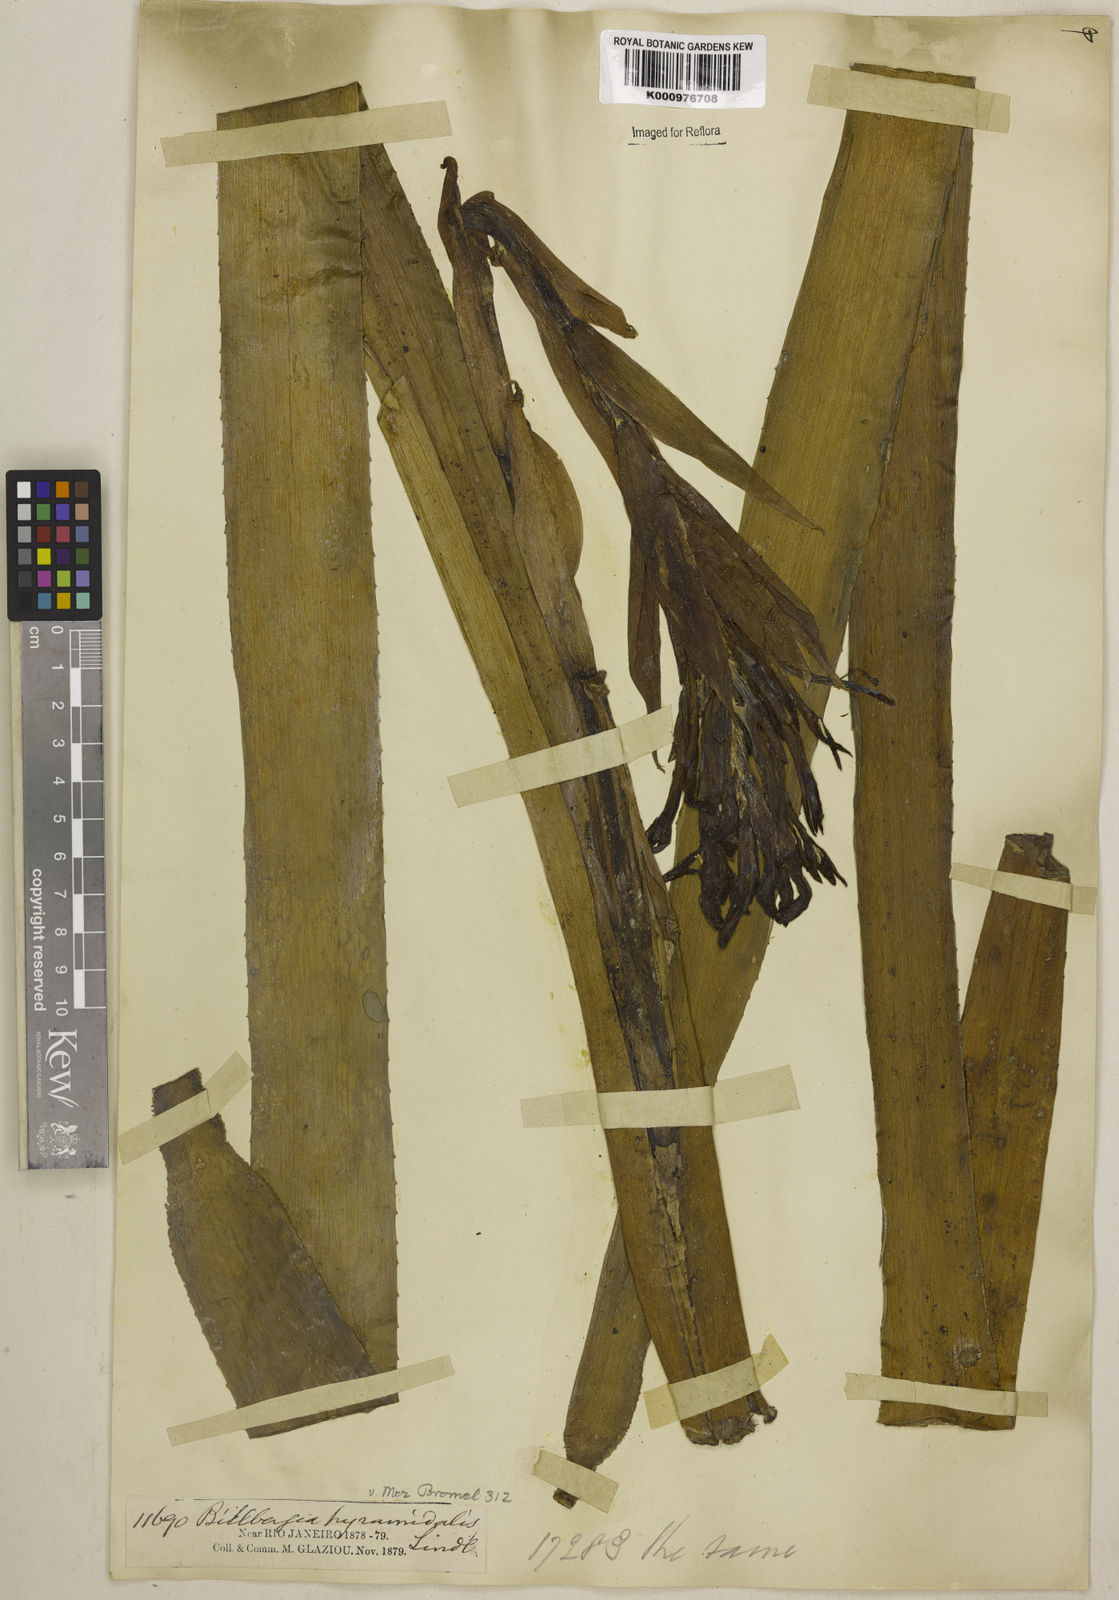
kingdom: Plantae
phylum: Tracheophyta
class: Liliopsida
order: Poales
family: Bromeliaceae
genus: Billbergia
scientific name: Billbergia pyramidalis
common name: Foolproofplant
